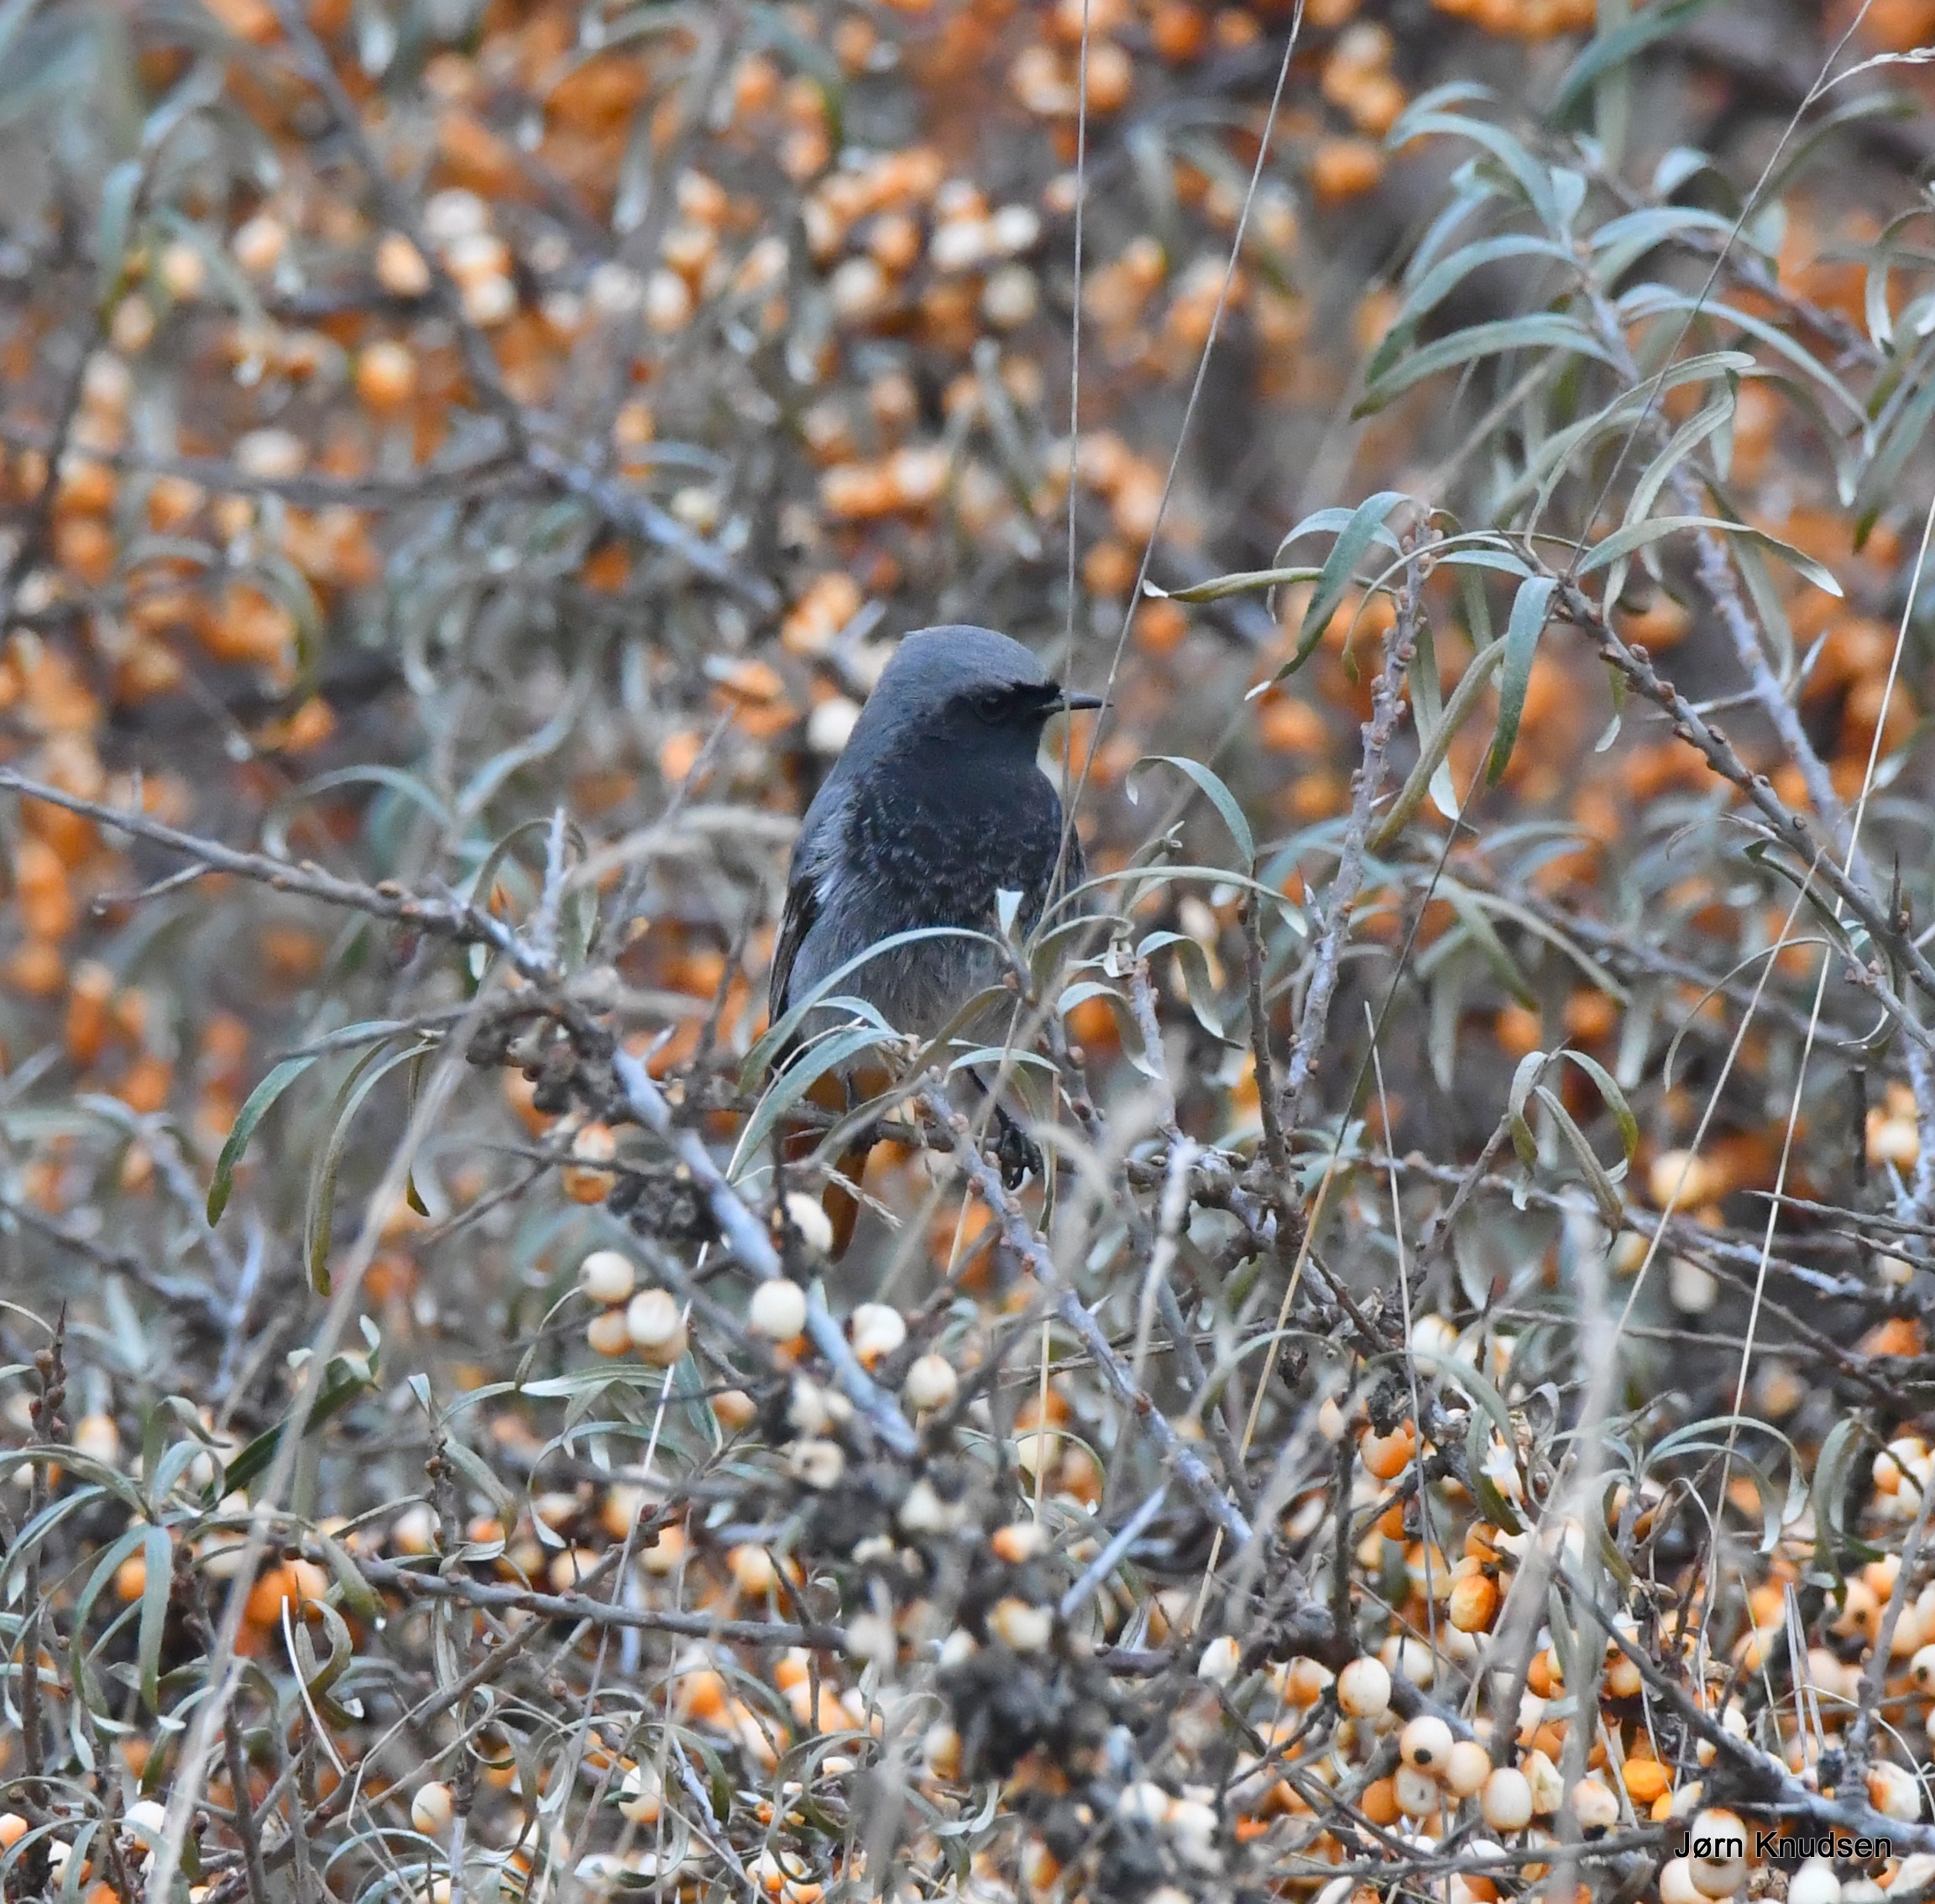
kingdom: Animalia
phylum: Chordata
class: Aves
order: Passeriformes
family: Muscicapidae
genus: Phoenicurus
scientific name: Phoenicurus ochruros
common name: Husrødstjert
